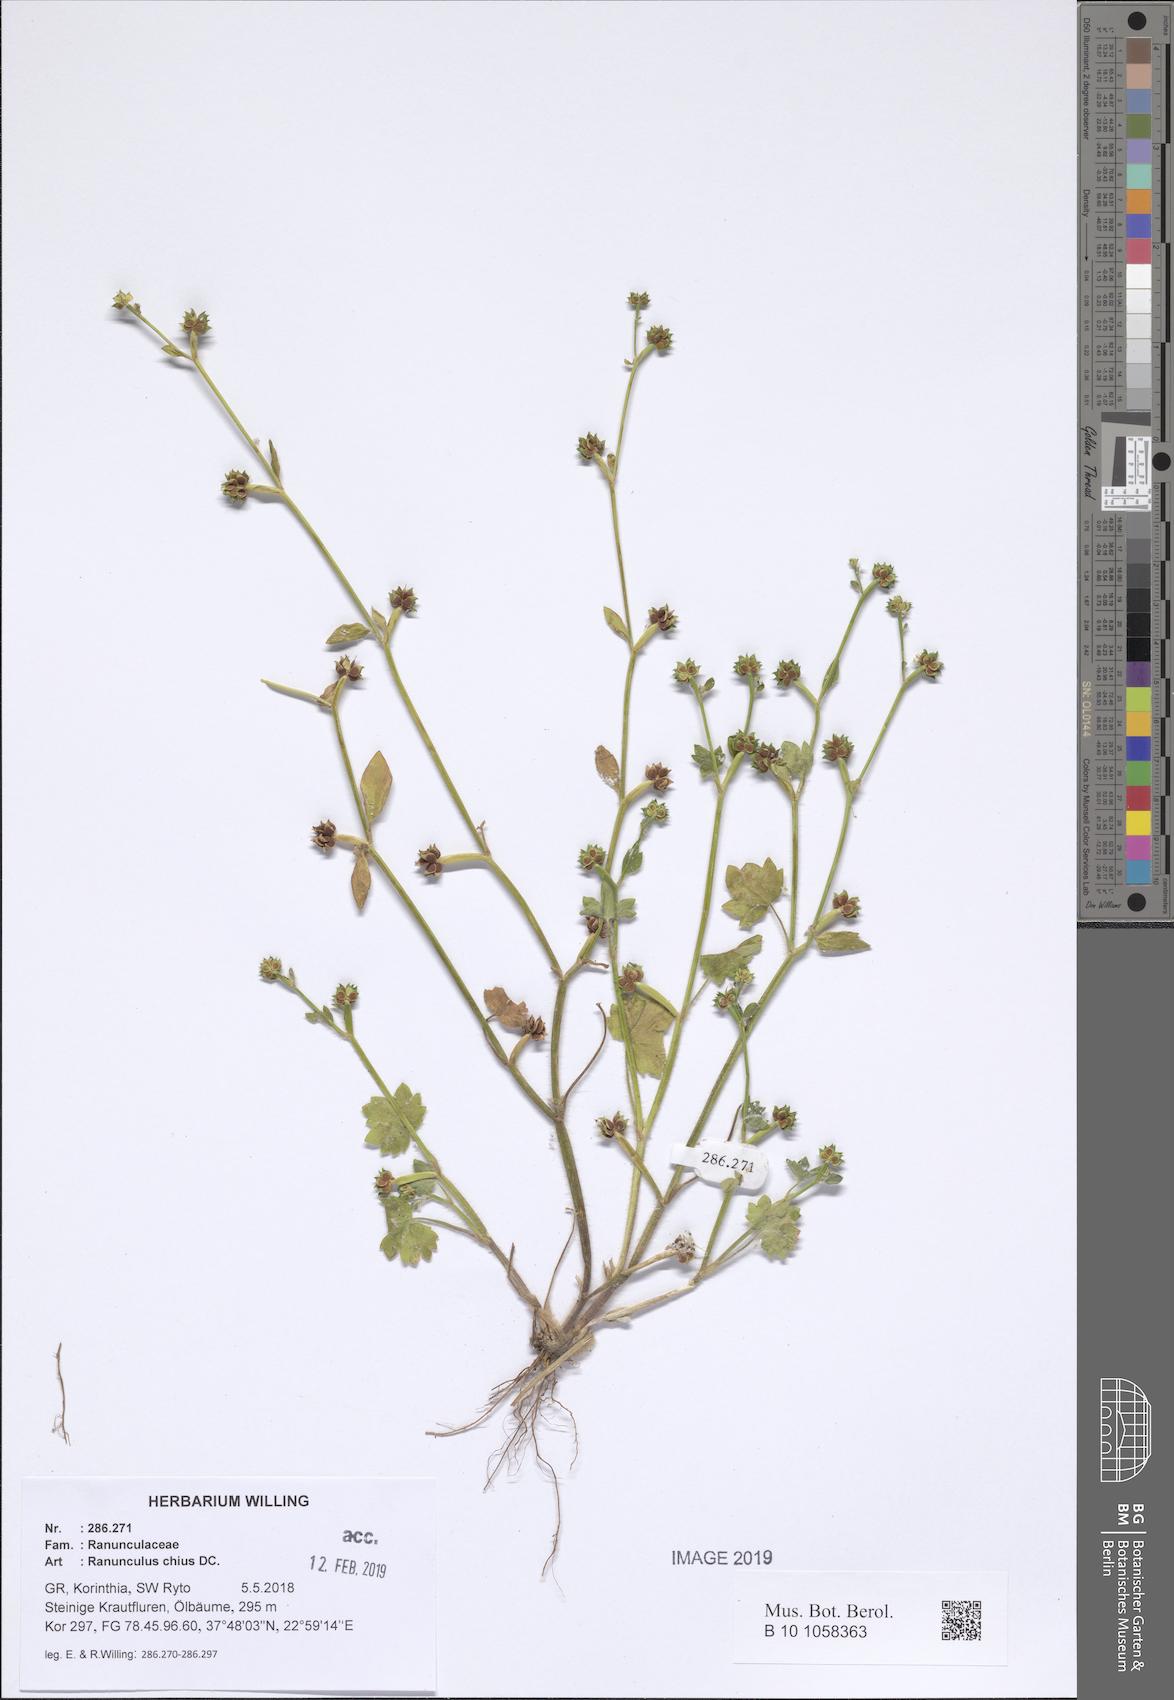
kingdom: Plantae
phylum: Tracheophyta
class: Magnoliopsida
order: Ranunculales
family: Ranunculaceae
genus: Ranunculus
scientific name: Ranunculus chius
